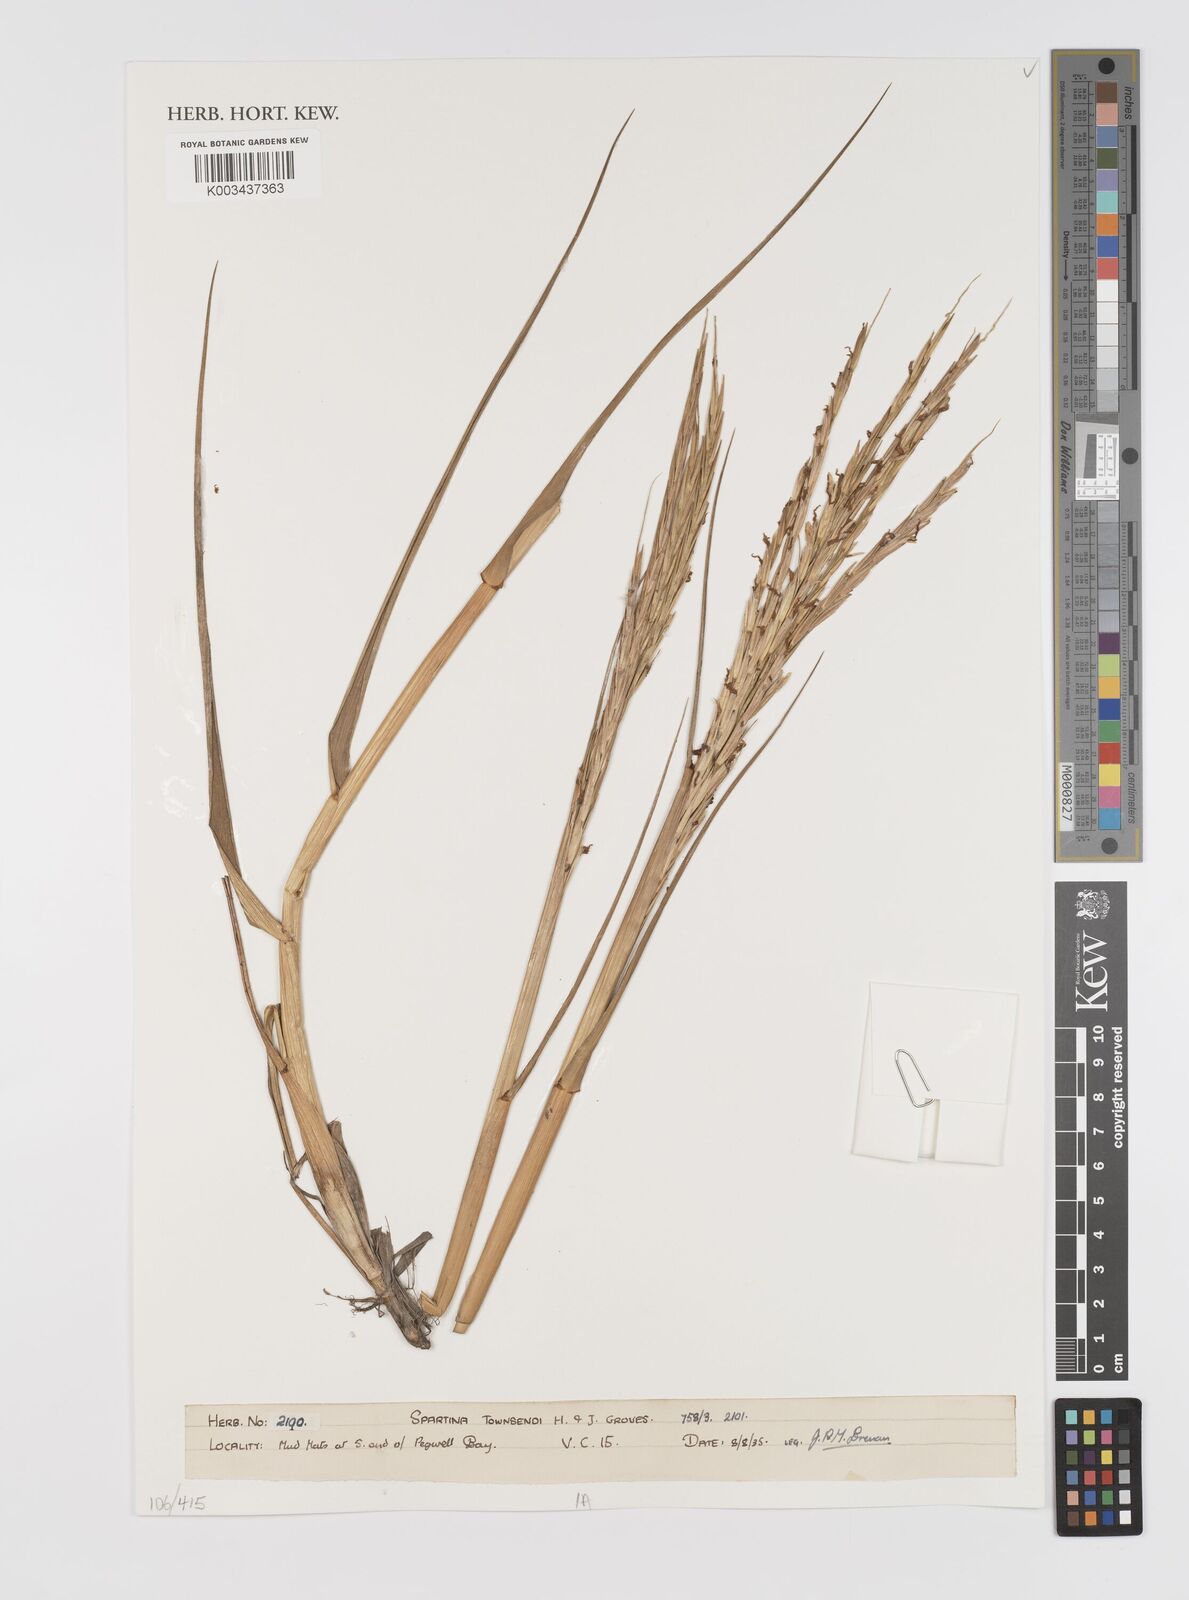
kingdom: Plantae
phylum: Tracheophyta
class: Liliopsida
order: Poales
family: Poaceae
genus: Sporobolus
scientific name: Sporobolus townsendii
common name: Townsend's cordgrass
